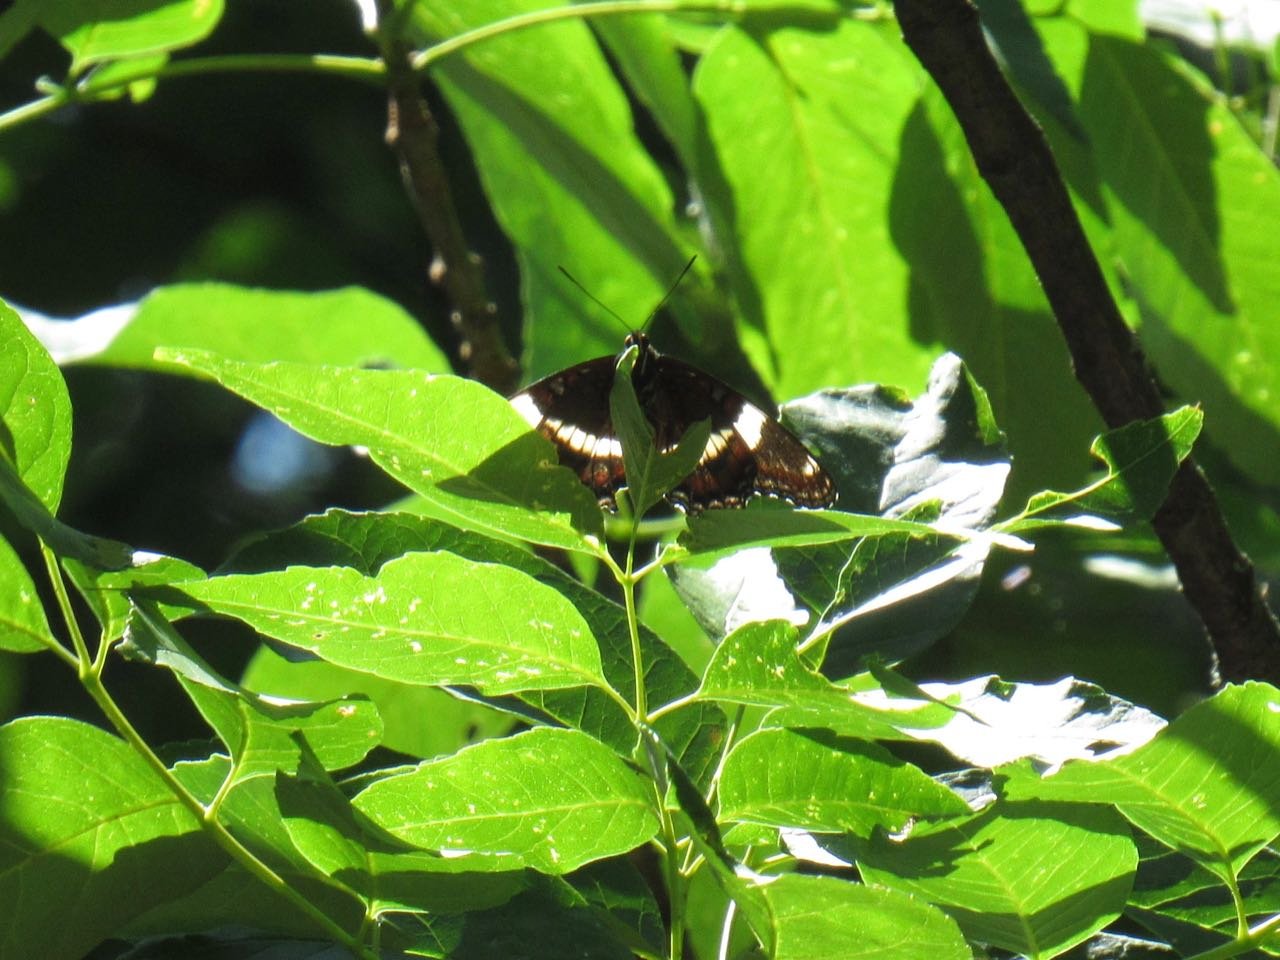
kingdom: Animalia
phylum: Arthropoda
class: Insecta
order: Lepidoptera
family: Nymphalidae
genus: Limenitis
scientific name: Limenitis arthemis
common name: Red-spotted Admiral
